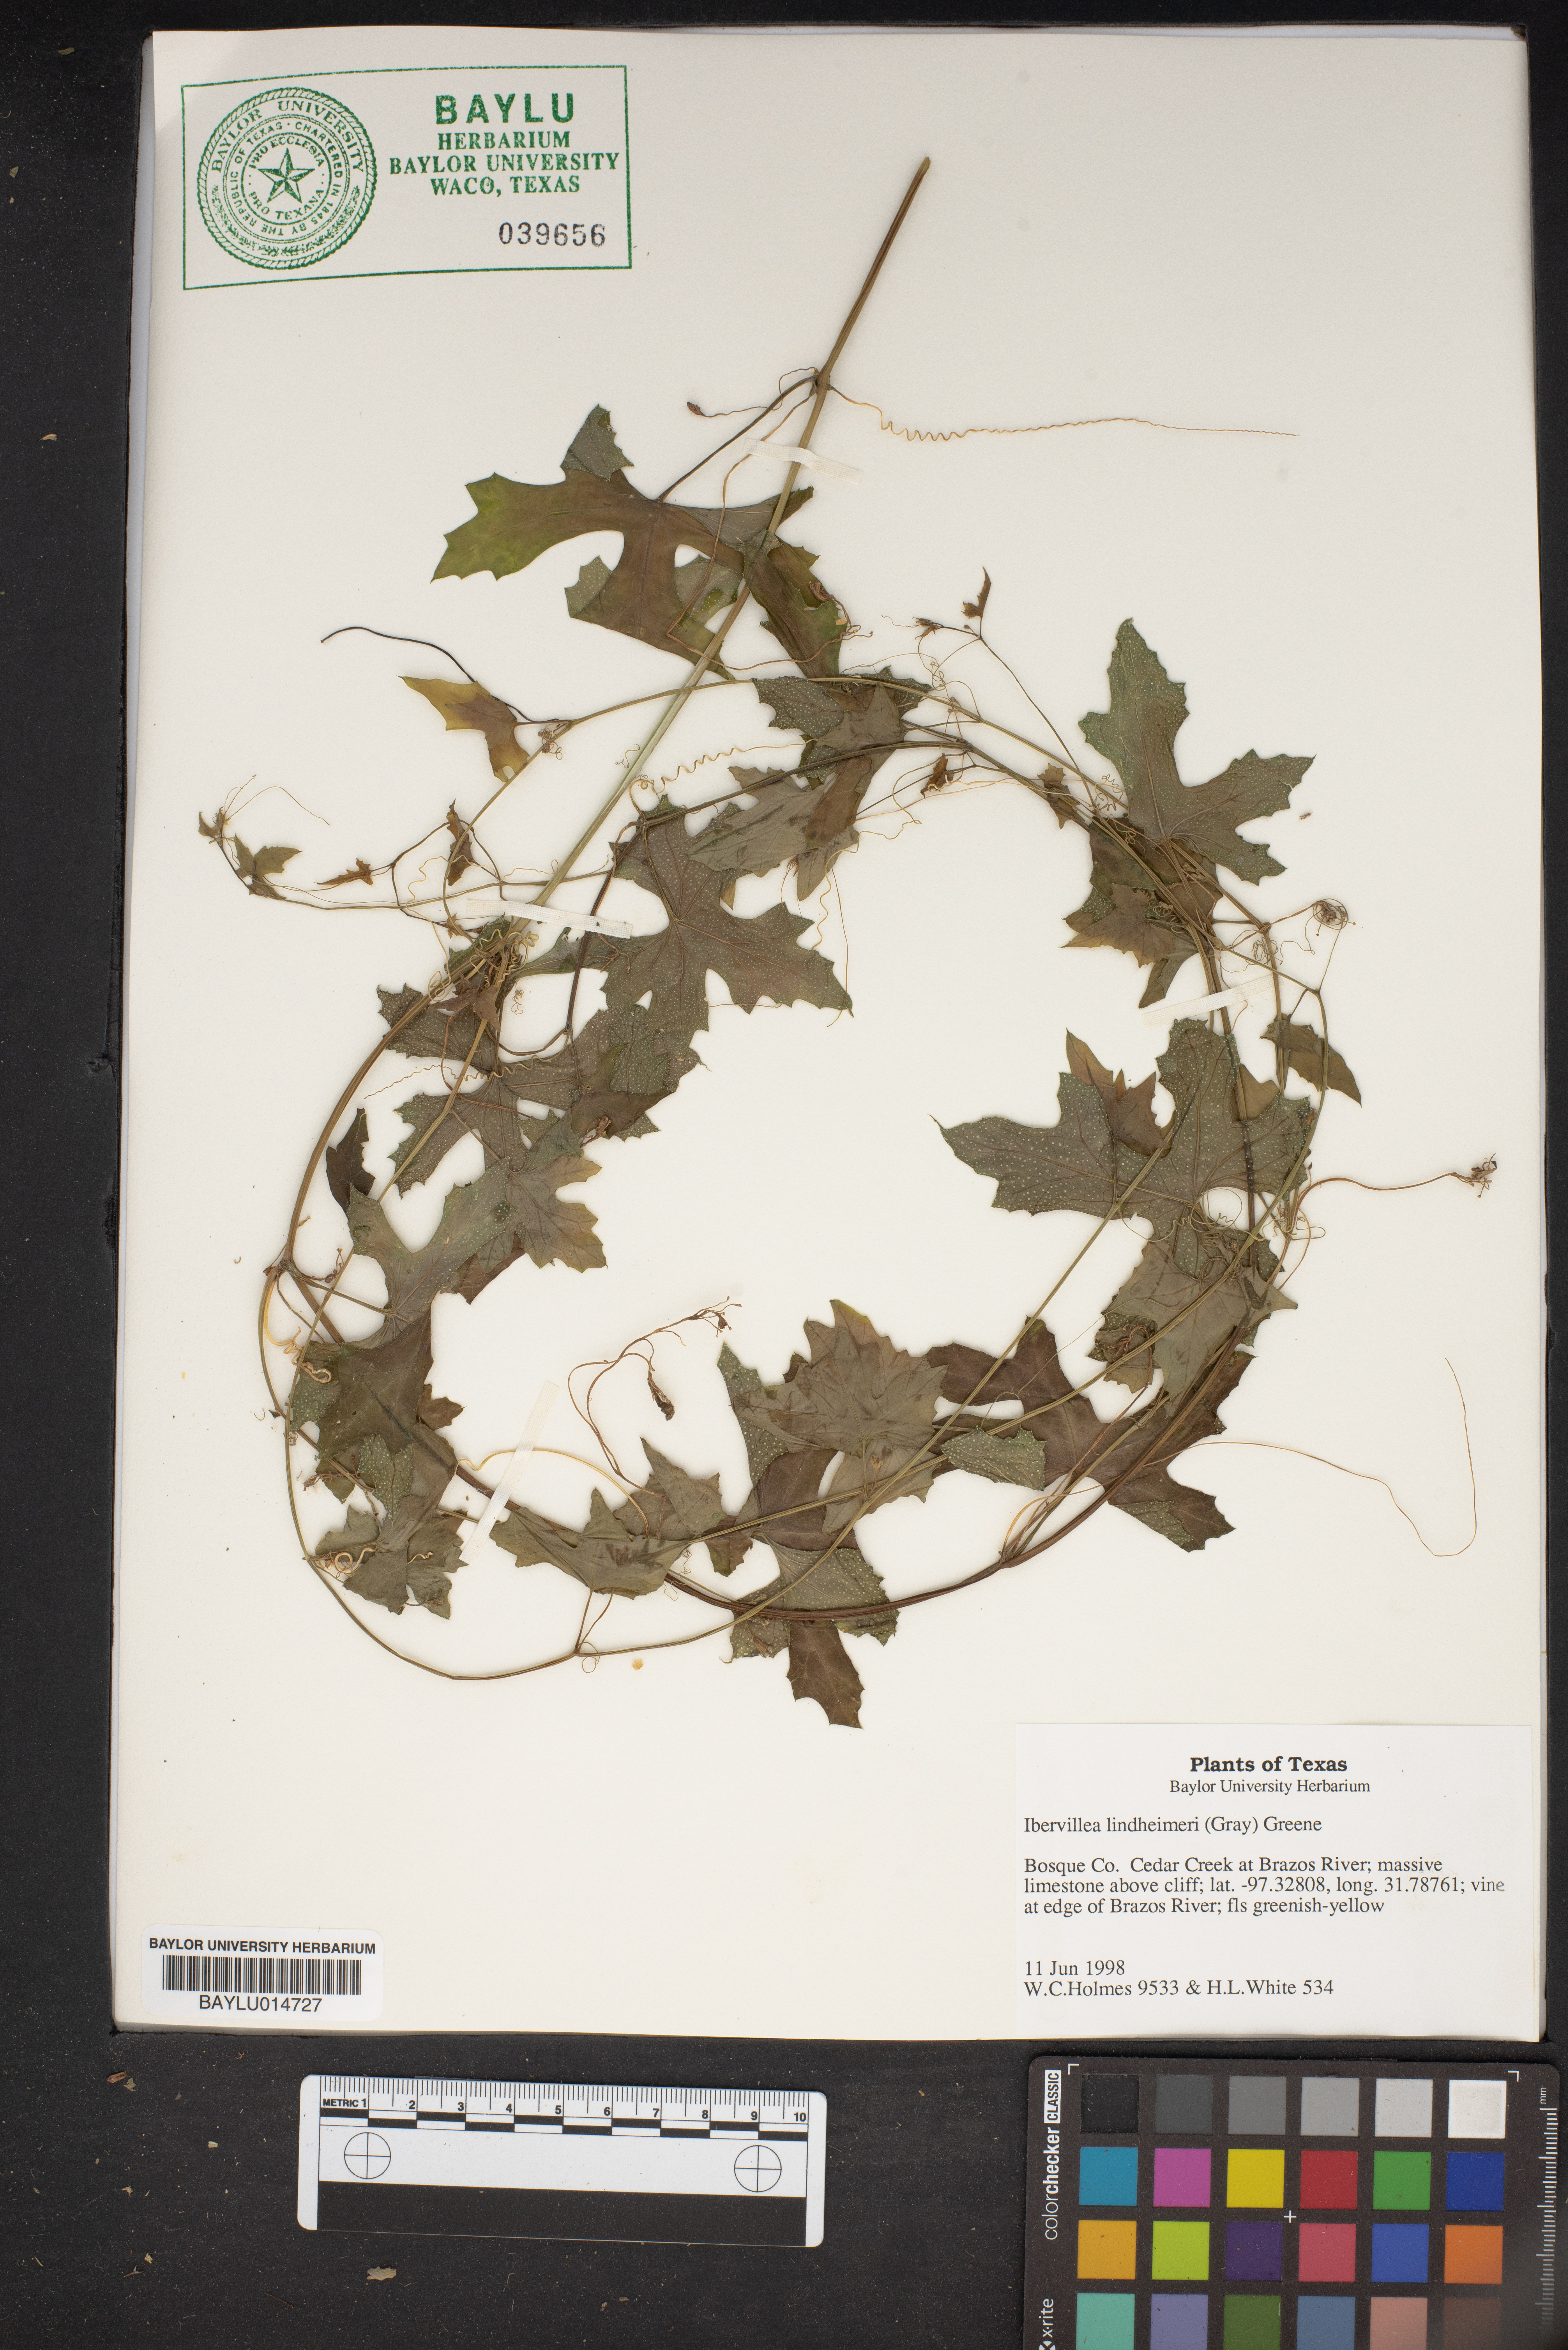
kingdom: Plantae
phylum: Tracheophyta
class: Magnoliopsida
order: Cucurbitales
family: Cucurbitaceae
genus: Ibervillea
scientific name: Ibervillea lindheimeri
